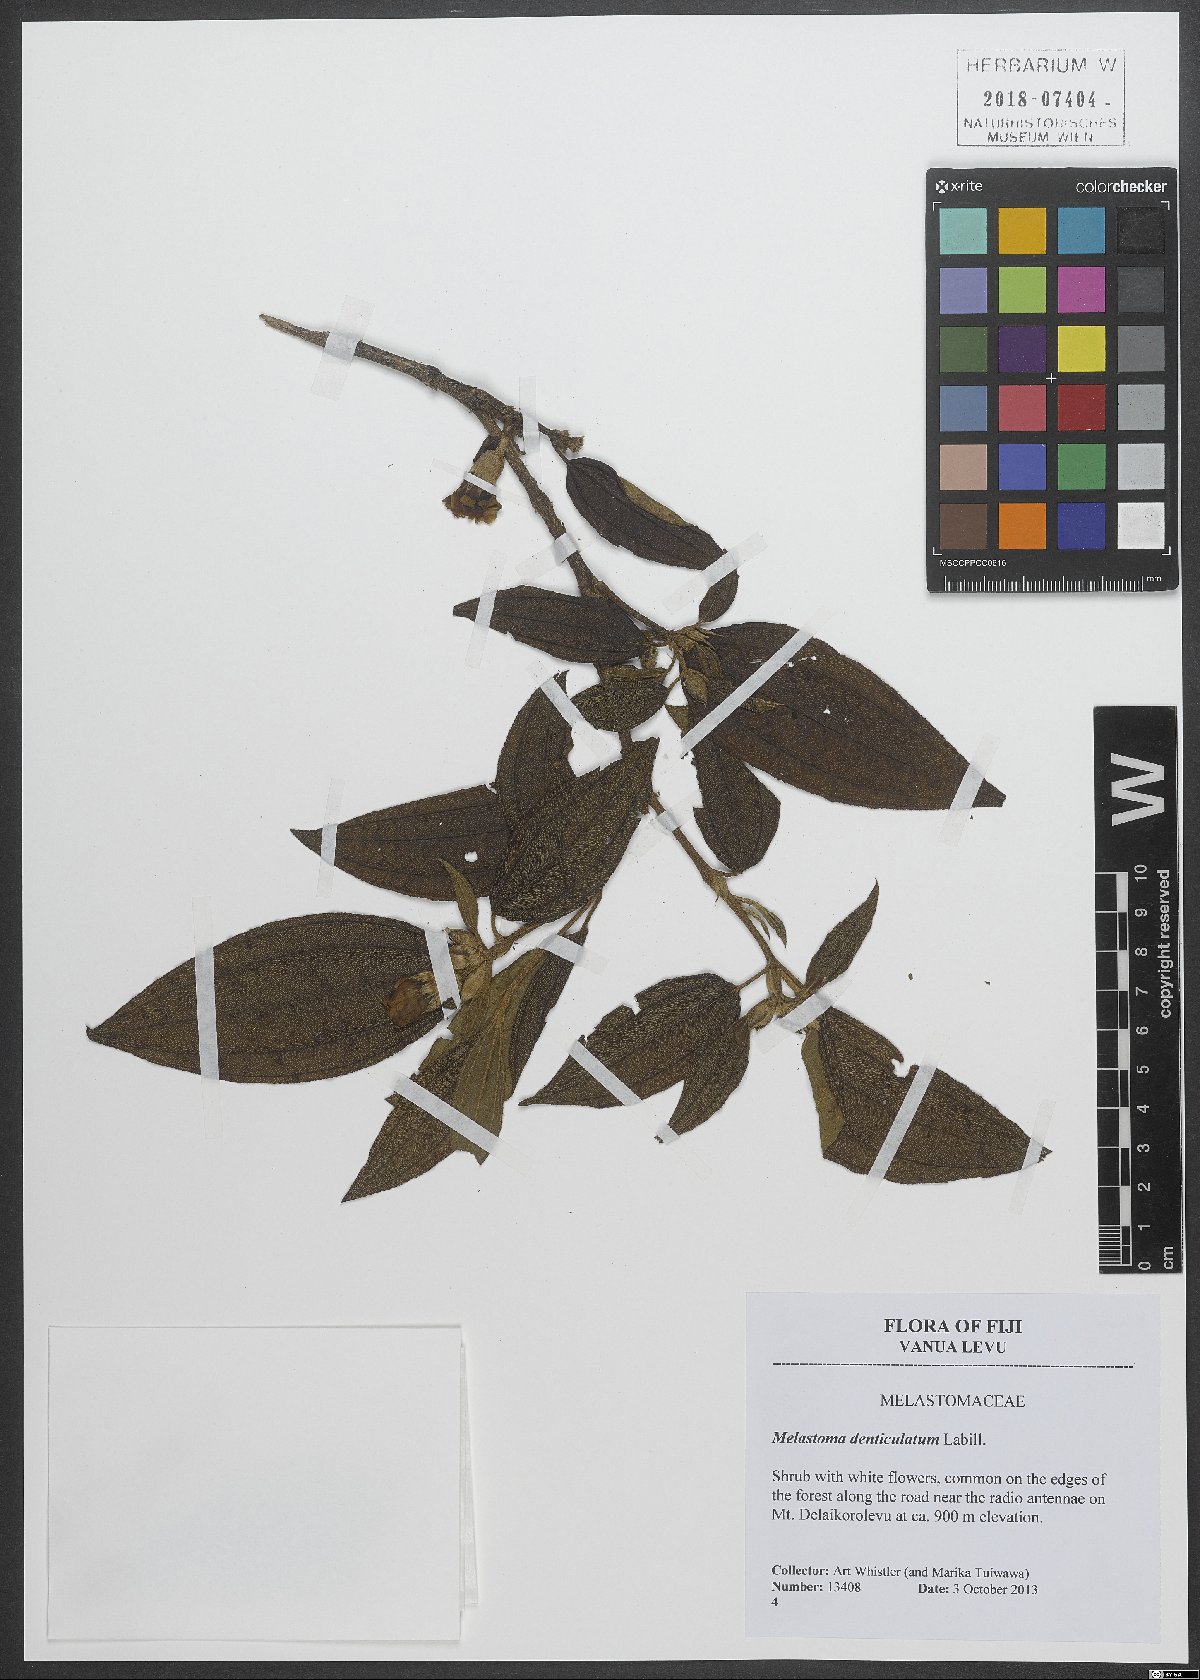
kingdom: Plantae
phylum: Tracheophyta
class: Magnoliopsida
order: Myrtales
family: Melastomataceae
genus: Melastoma
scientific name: Melastoma denticulatum
